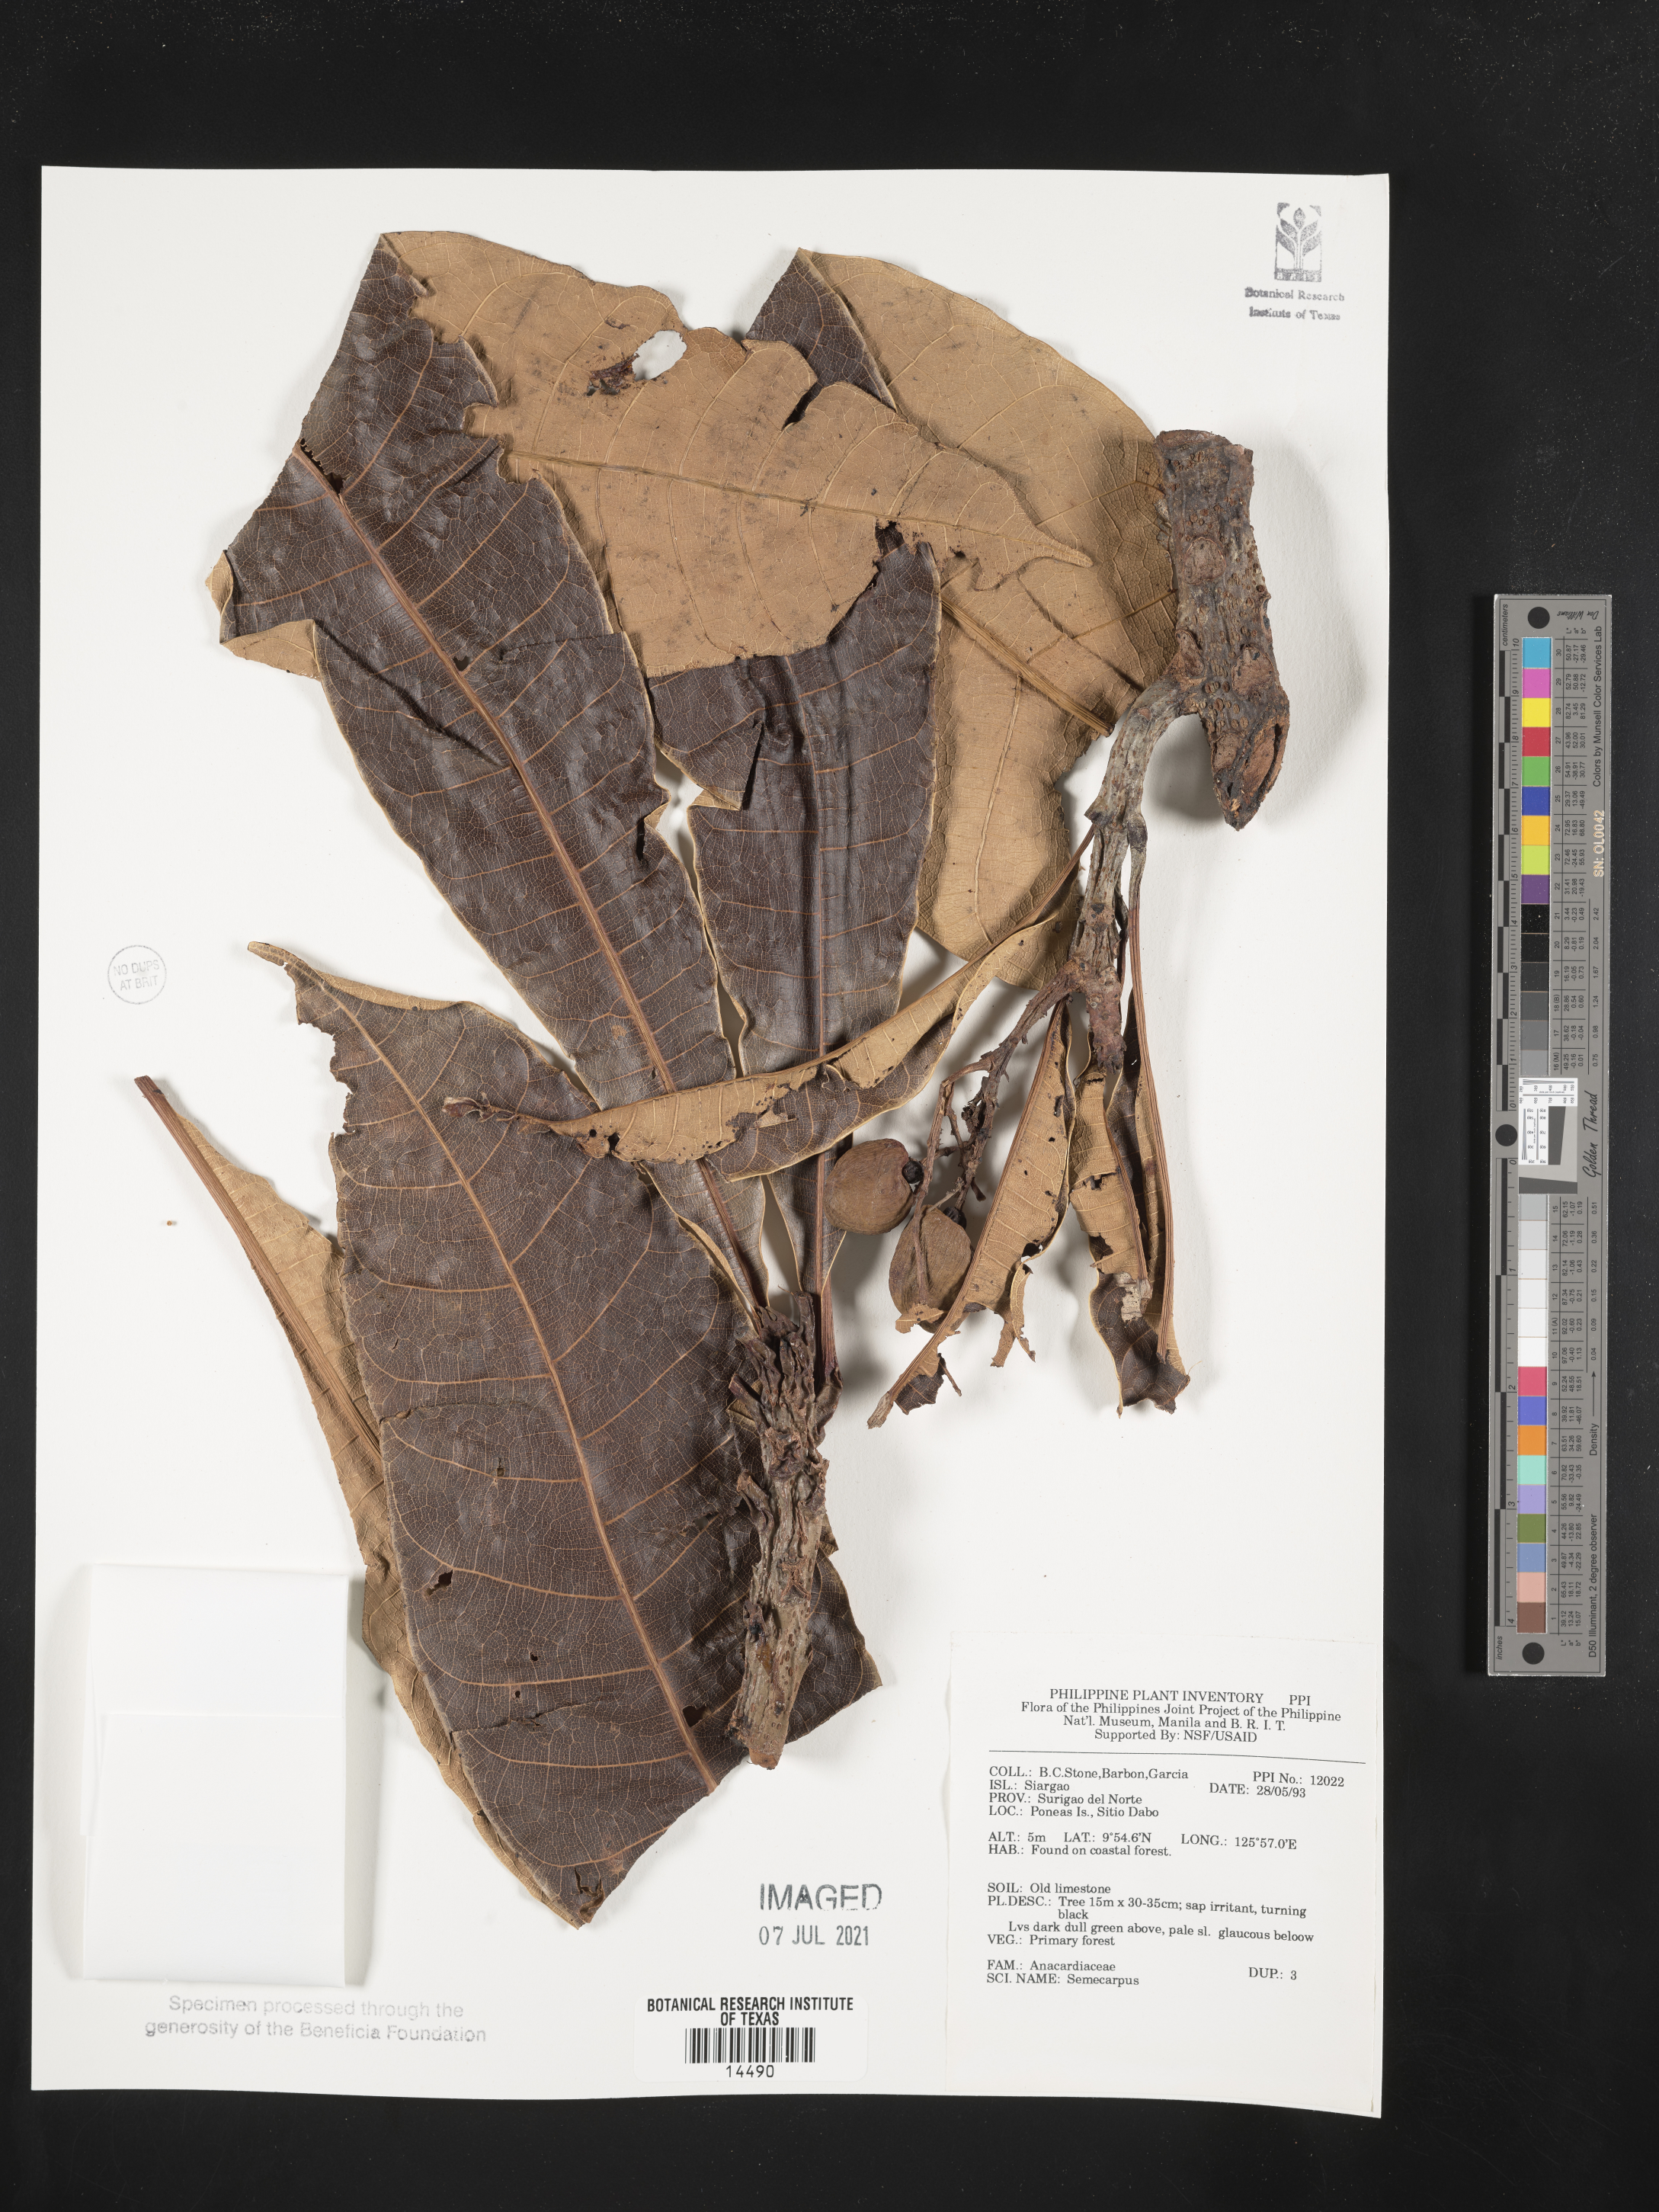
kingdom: Plantae
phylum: Tracheophyta
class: Magnoliopsida
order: Sapindales
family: Anacardiaceae
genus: Semecarpus
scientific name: Semecarpus
